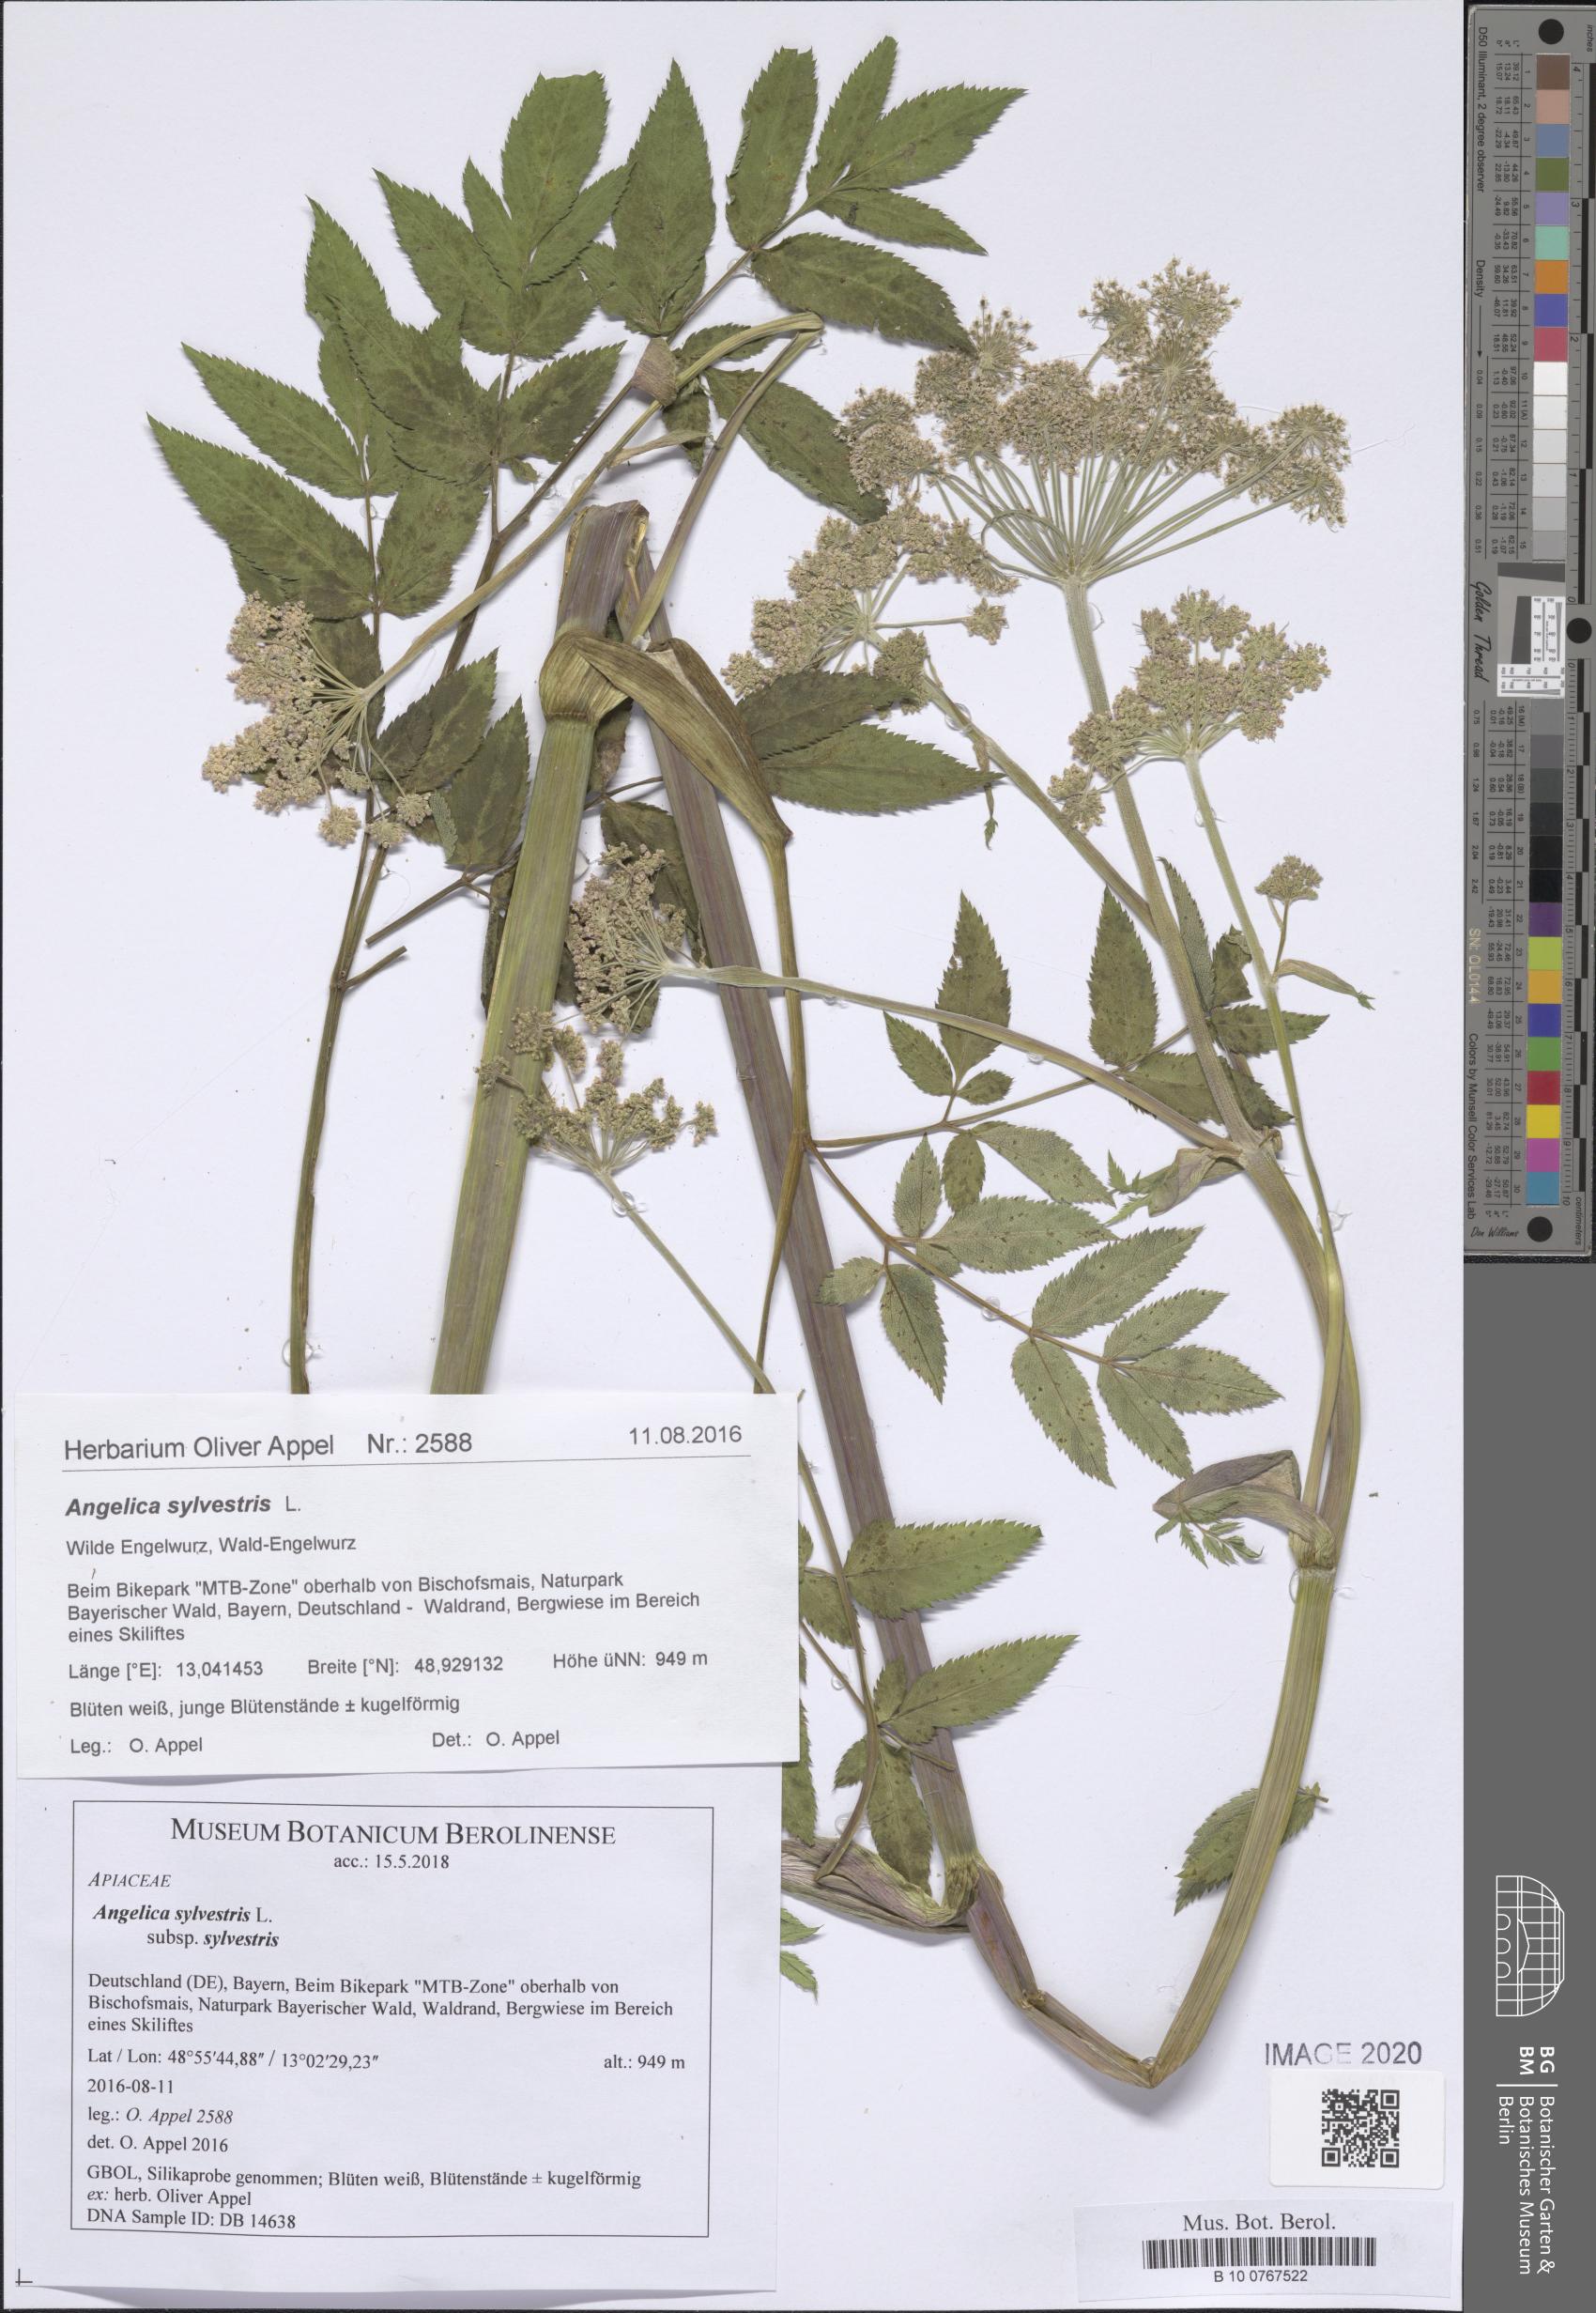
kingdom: Plantae
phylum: Tracheophyta
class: Magnoliopsida
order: Apiales
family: Apiaceae
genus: Angelica
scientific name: Angelica sylvestris
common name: Wild angelica
